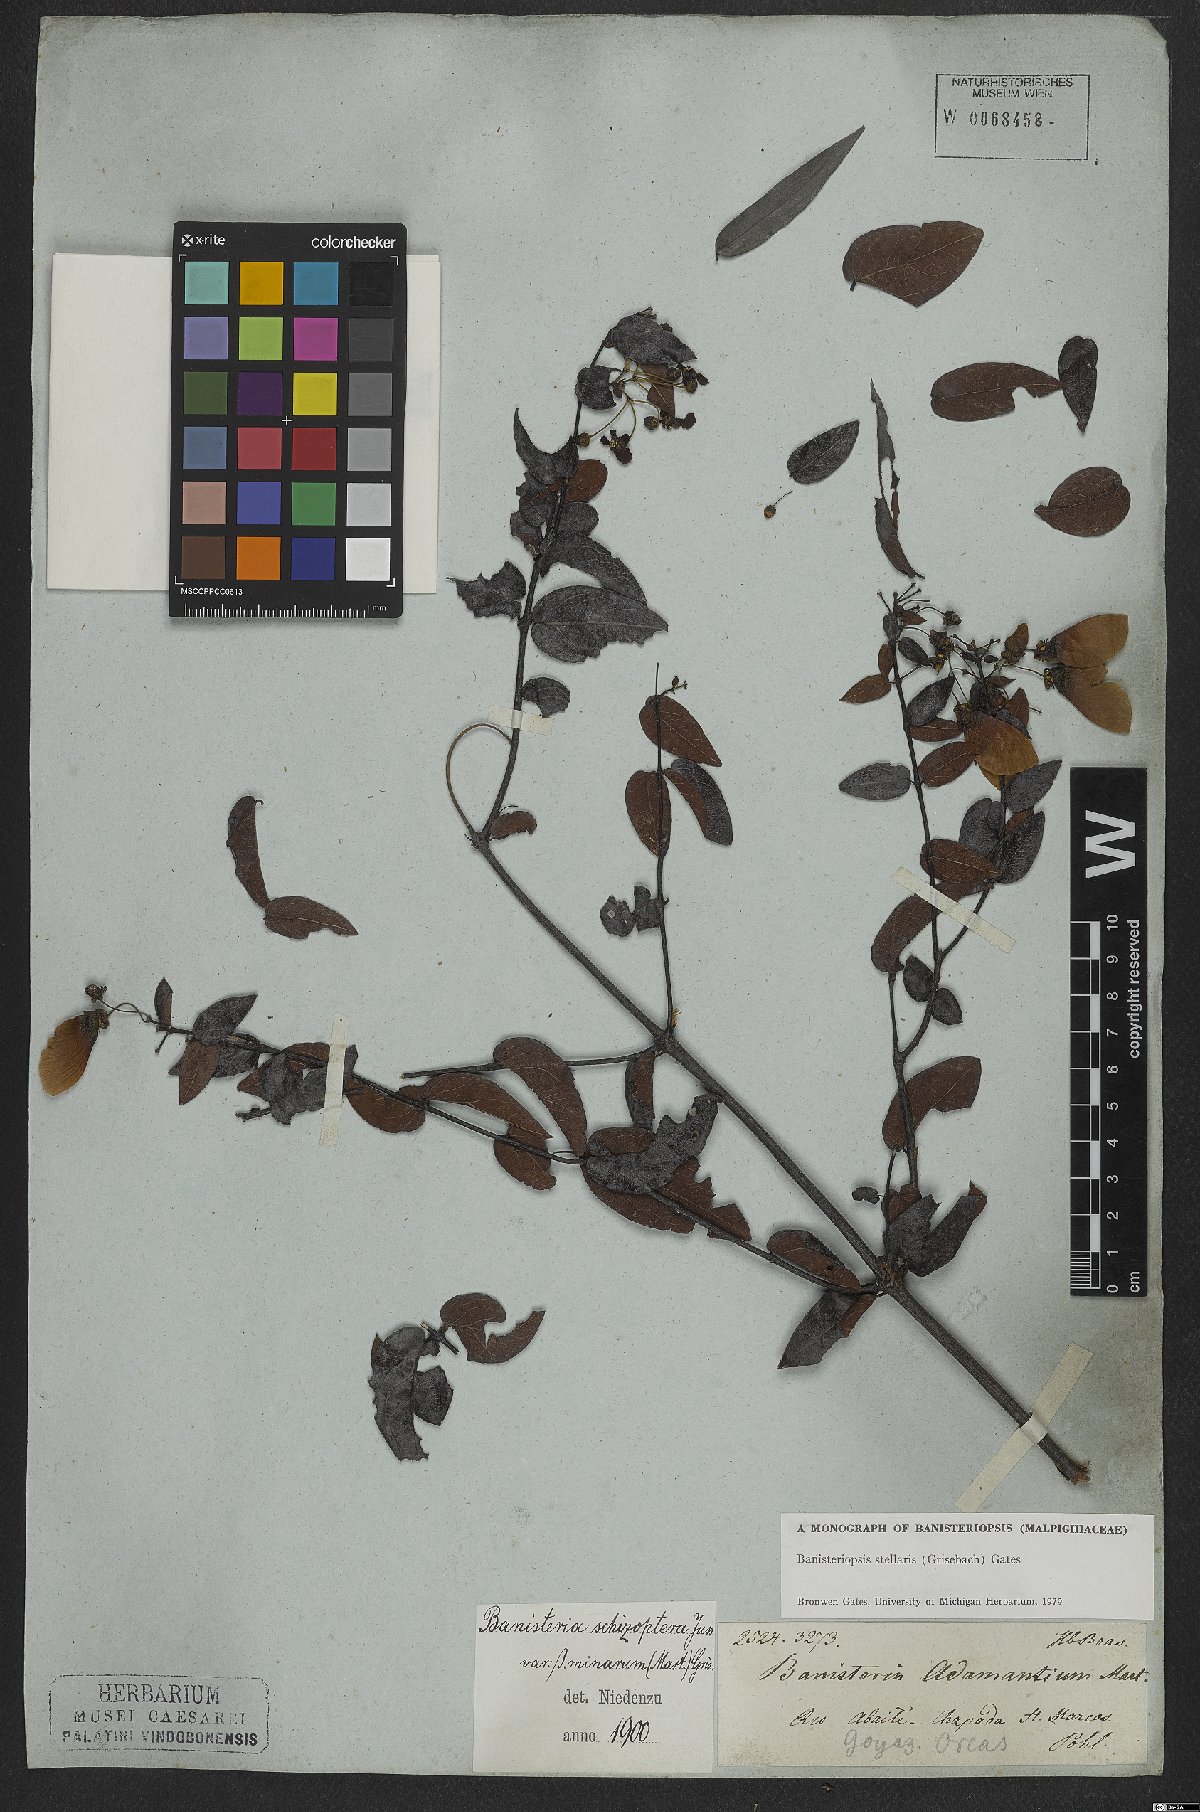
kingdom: Plantae
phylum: Tracheophyta
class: Magnoliopsida
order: Malpighiales
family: Malpighiaceae
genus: Banisteriopsis
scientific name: Banisteriopsis stellaris
